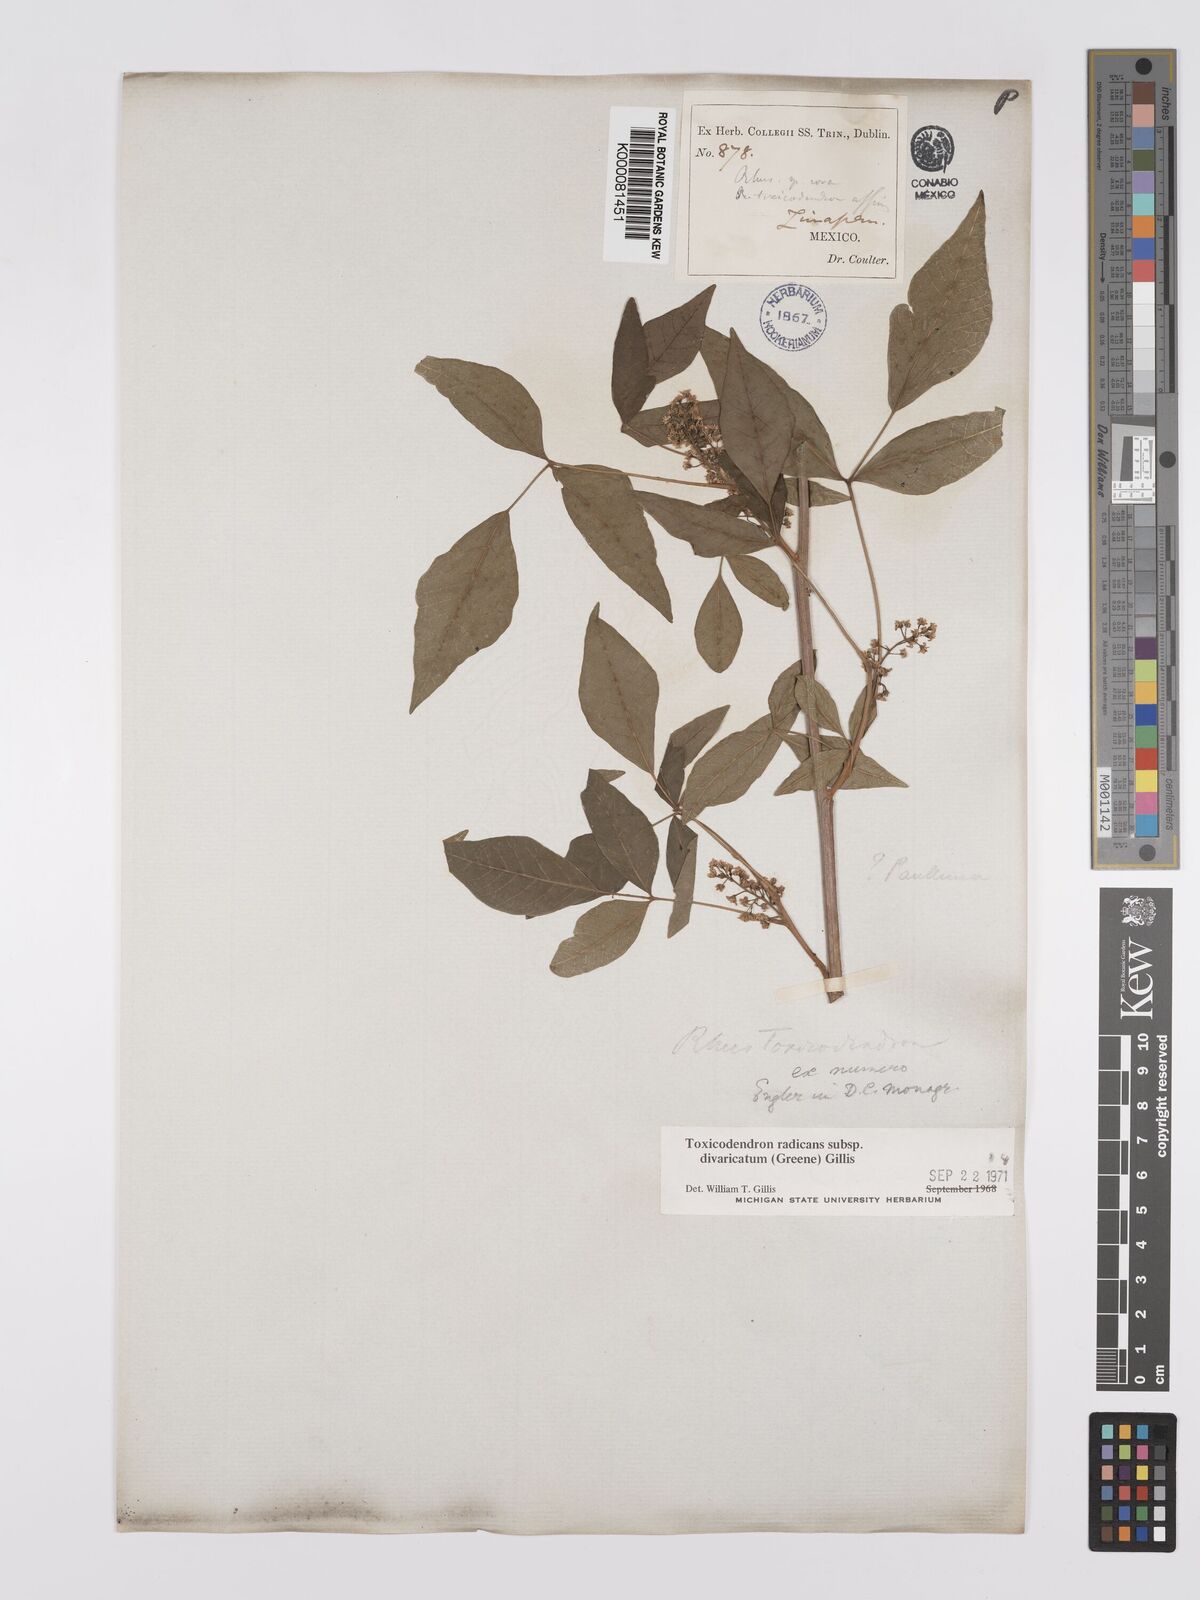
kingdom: Plantae
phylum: Tracheophyta
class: Magnoliopsida
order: Sapindales
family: Anacardiaceae
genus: Toxicodendron
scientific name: Toxicodendron radicans
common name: Poison ivy
